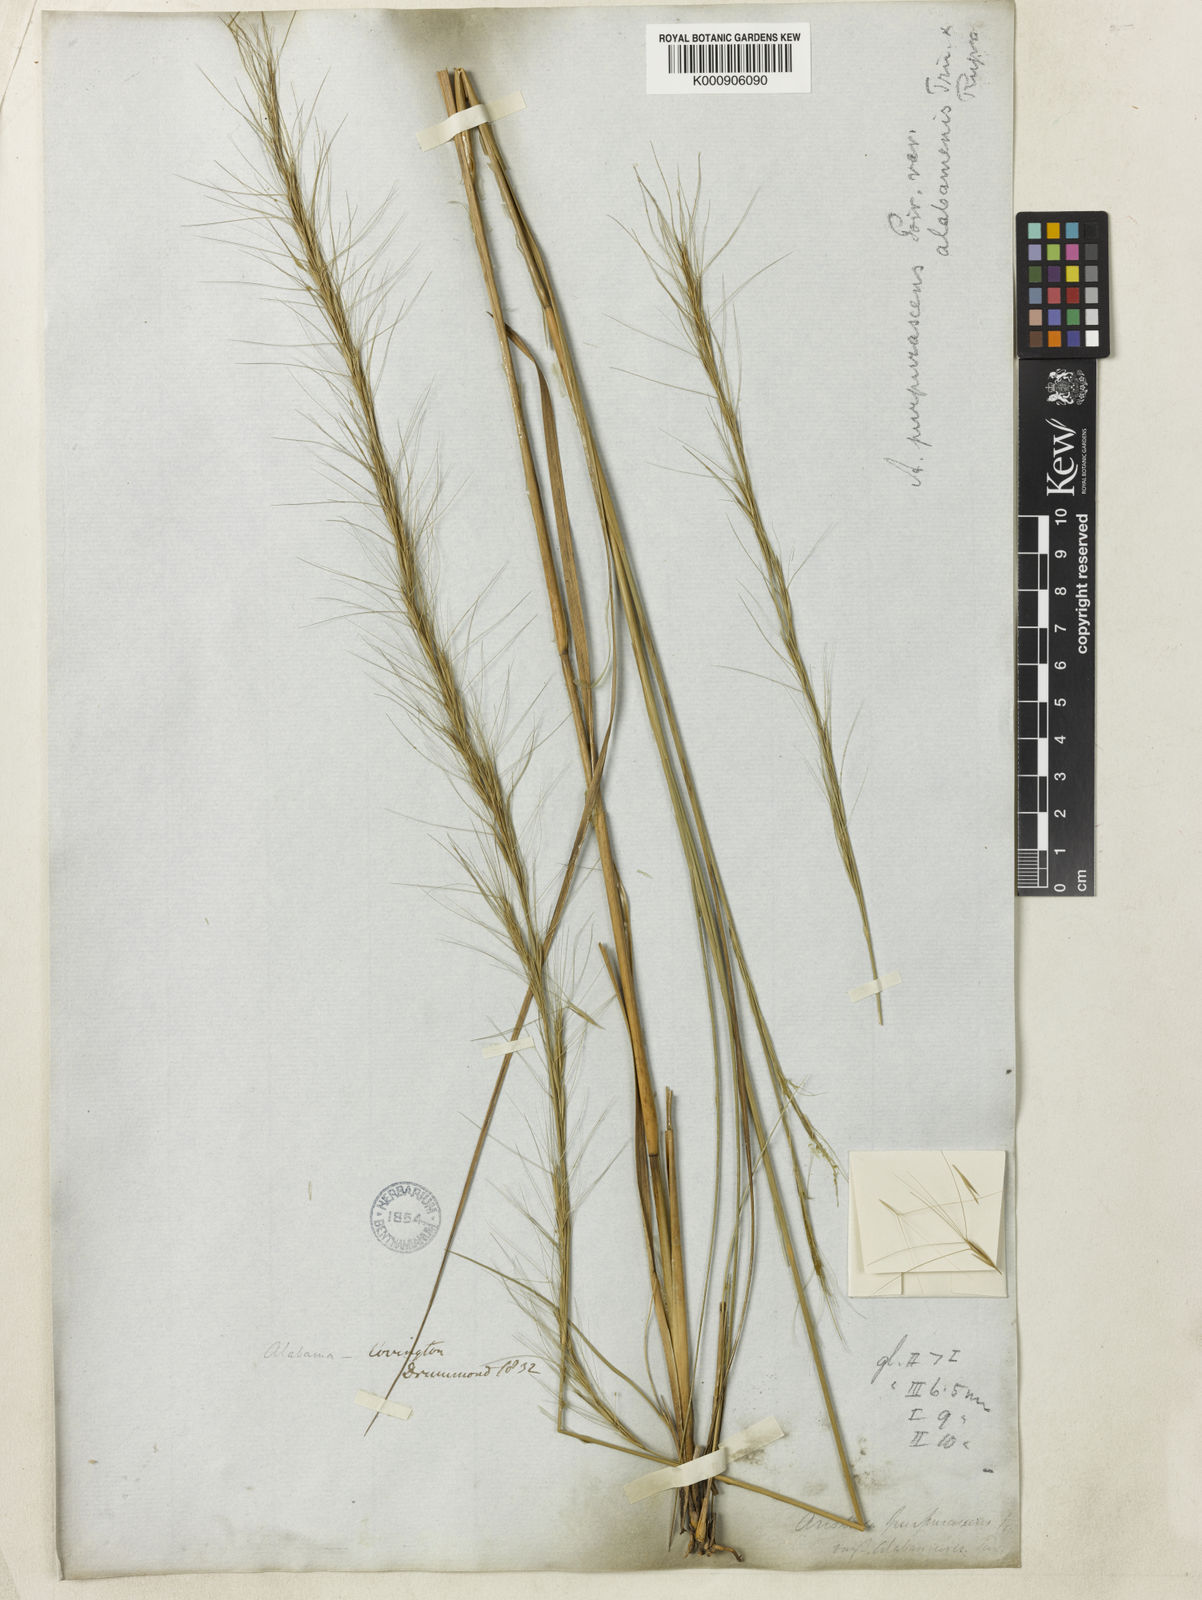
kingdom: Plantae
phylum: Tracheophyta
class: Liliopsida
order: Poales
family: Poaceae
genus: Aristida
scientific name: Aristida palustris
